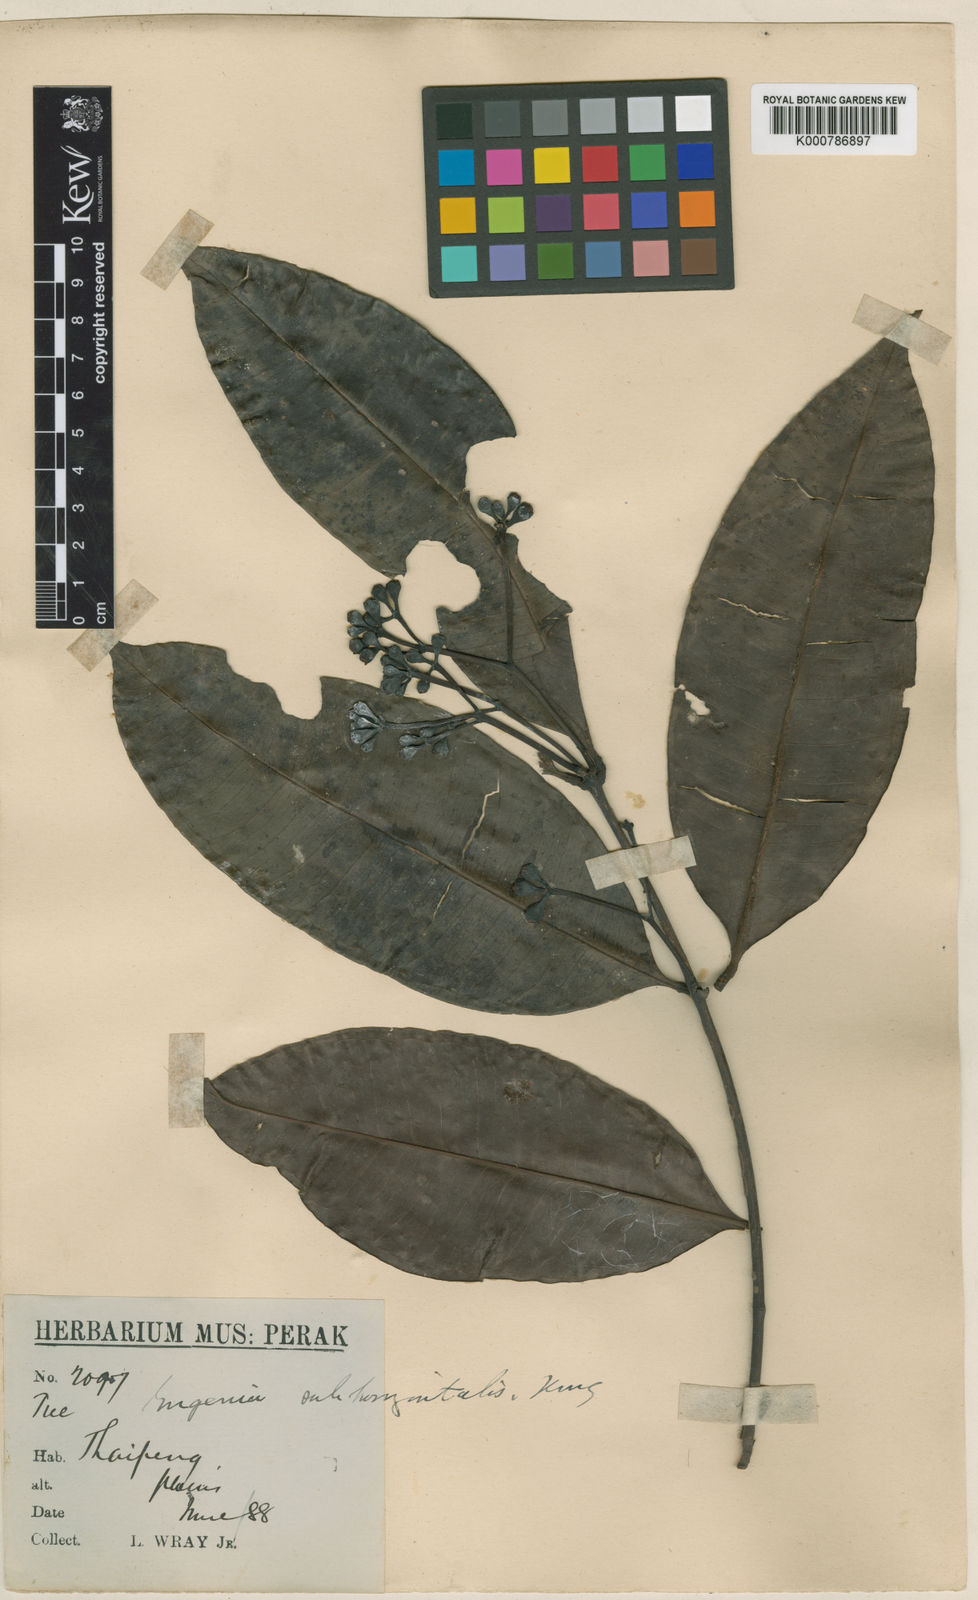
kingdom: Plantae
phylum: Tracheophyta
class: Magnoliopsida
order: Myrtales
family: Myrtaceae
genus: Syzygium
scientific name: Syzygium subhorizontale
